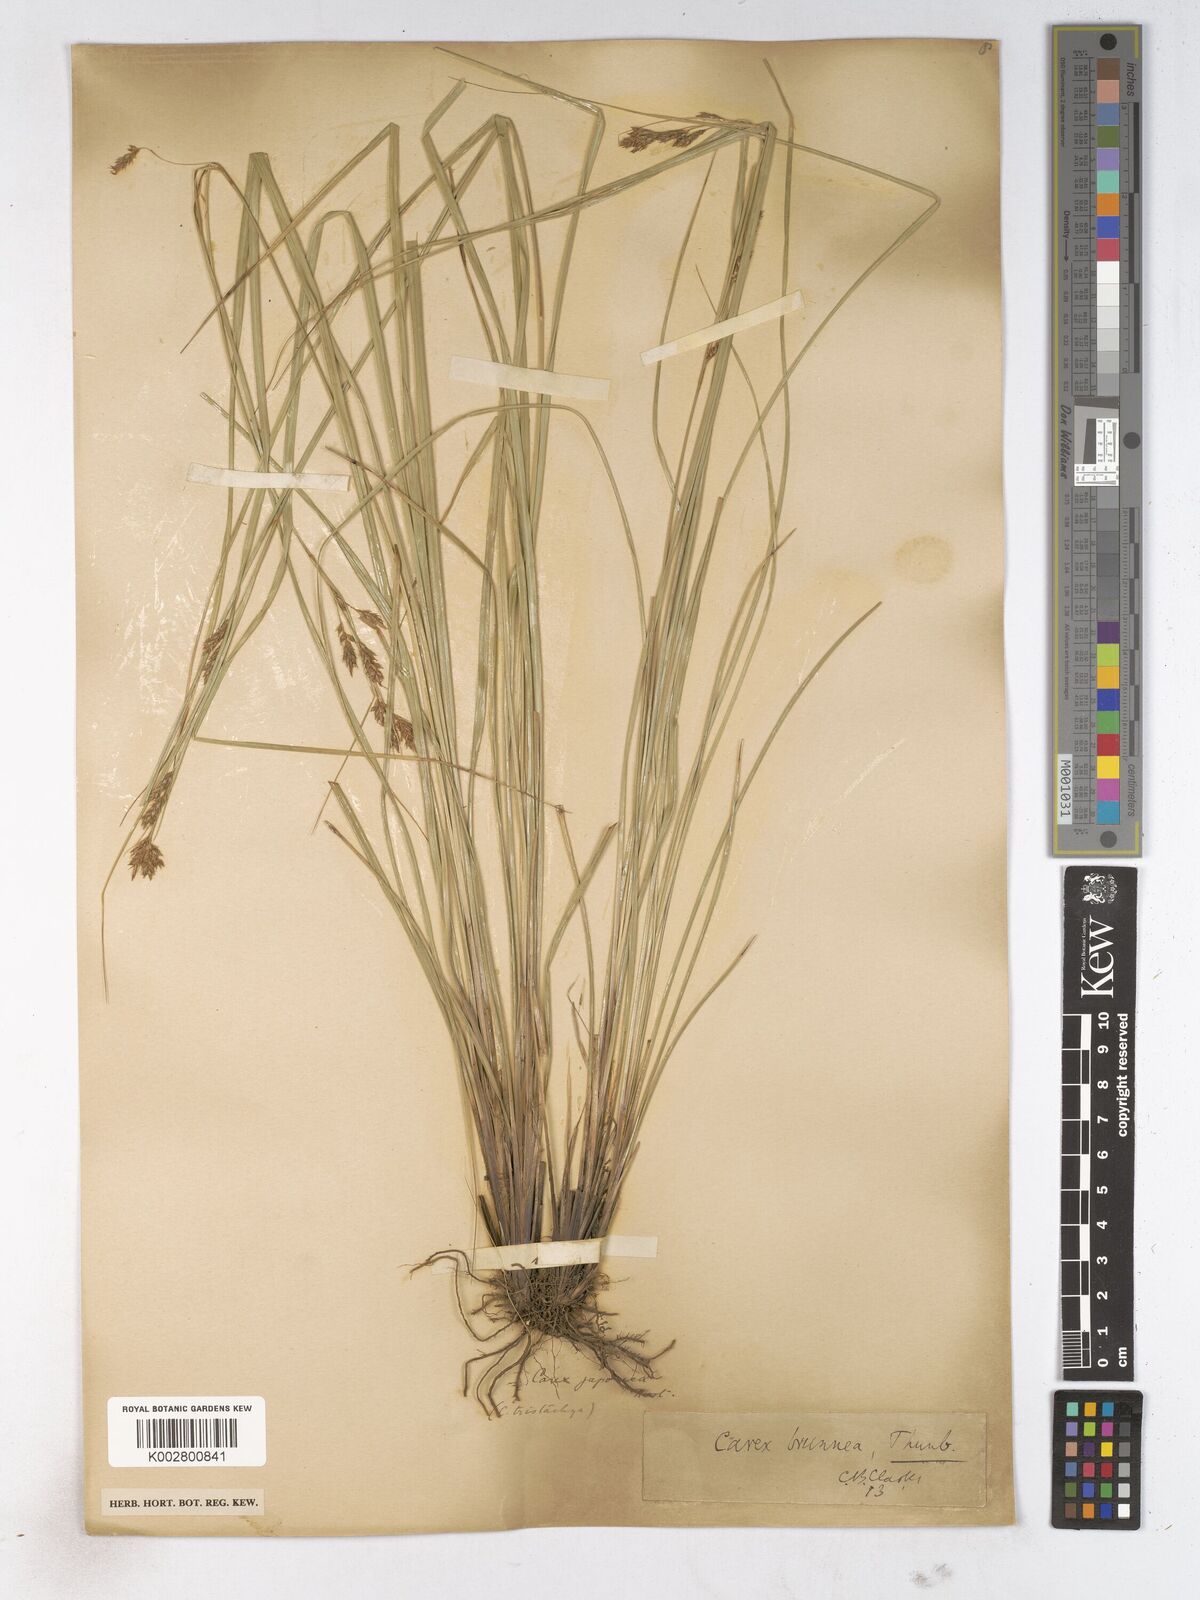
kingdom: Plantae
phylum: Tracheophyta
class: Liliopsida
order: Poales
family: Cyperaceae
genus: Carex
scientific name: Carex breviculmis
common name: Asian shortstem sedge
